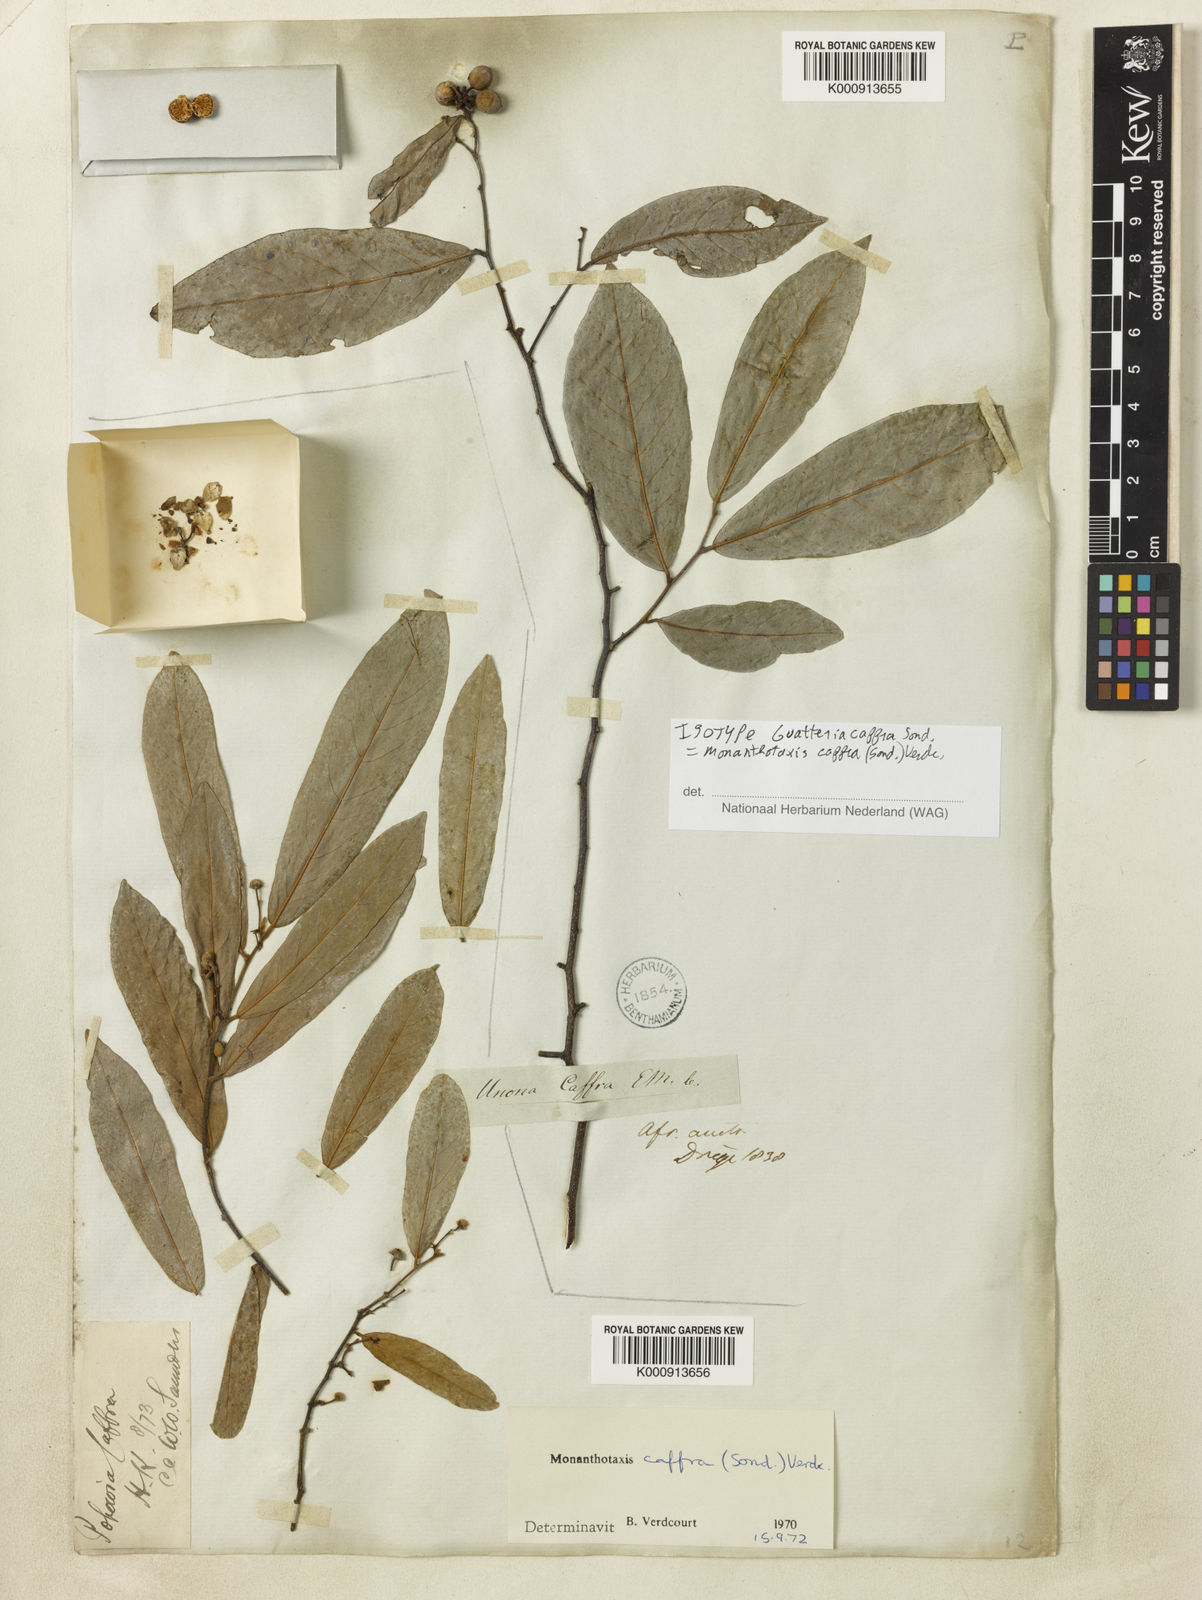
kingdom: Plantae
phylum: Tracheophyta
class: Magnoliopsida
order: Magnoliales
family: Annonaceae
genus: Monanthotaxis
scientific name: Monanthotaxis caffra
